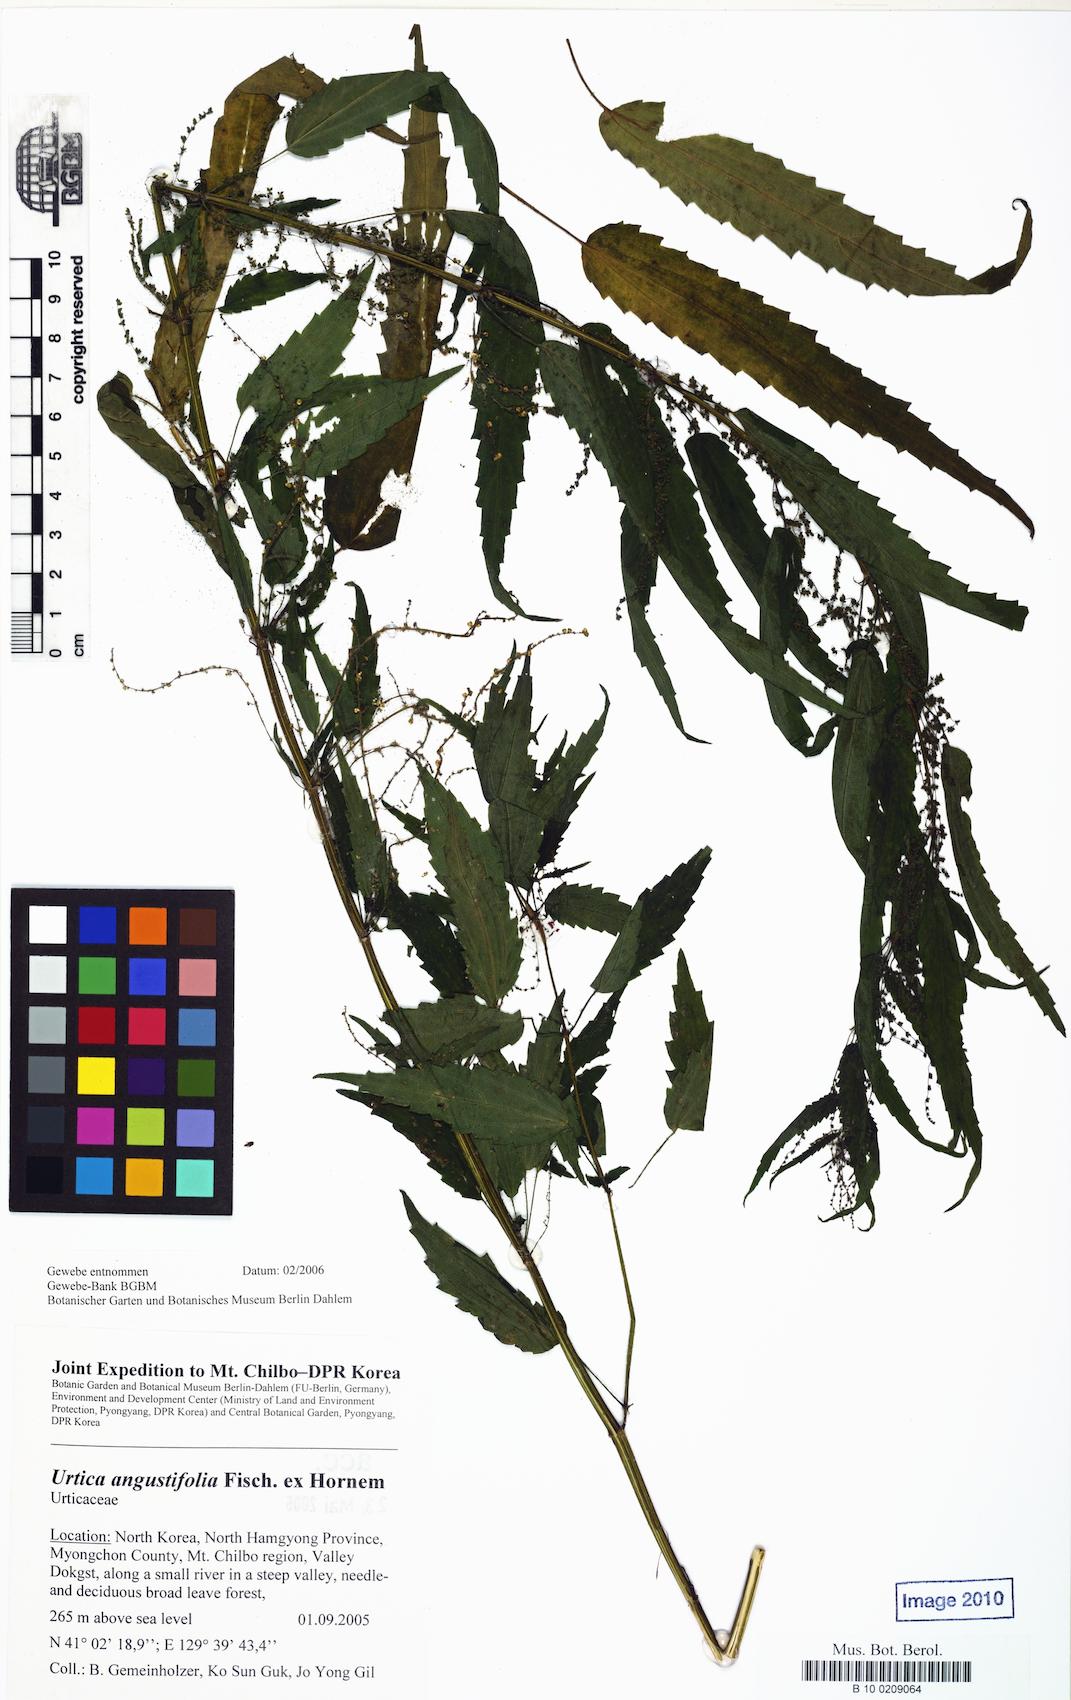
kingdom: Plantae
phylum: Tracheophyta
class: Magnoliopsida
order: Rosales
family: Urticaceae
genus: Urtica
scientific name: Urtica dioica
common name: Common nettle
